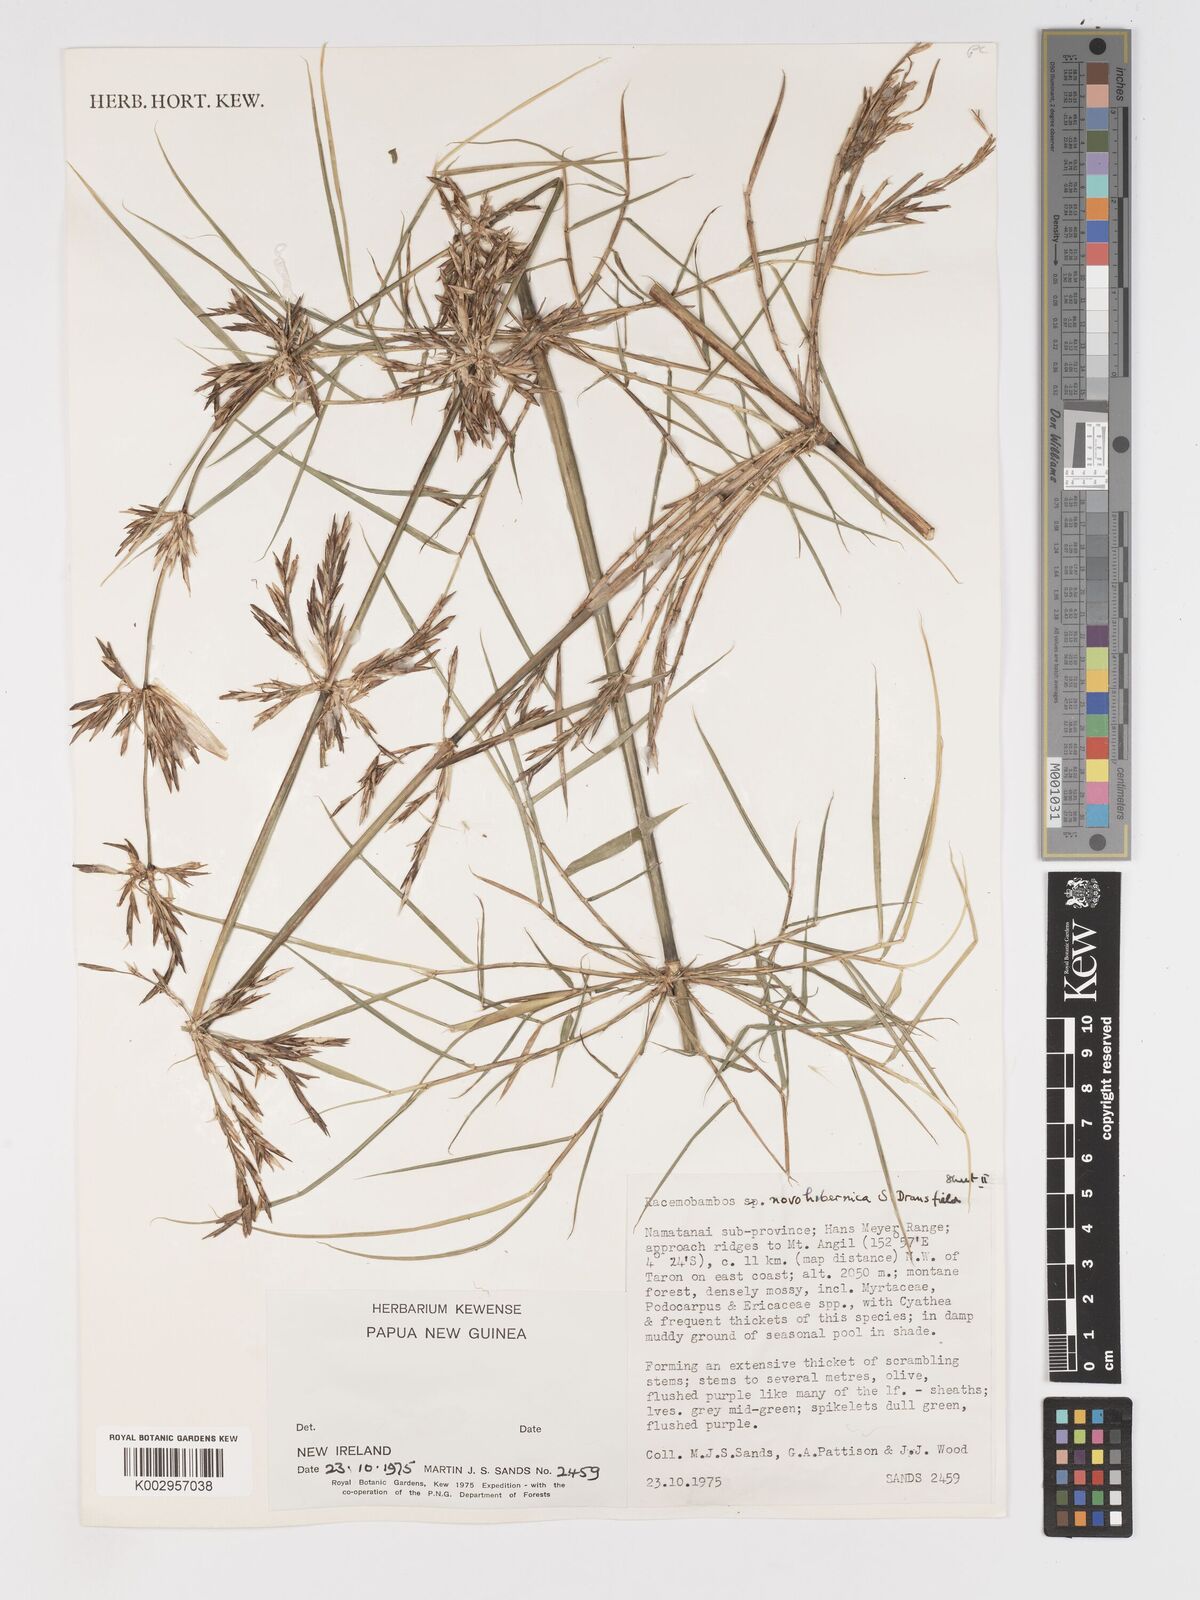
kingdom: Plantae
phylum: Tracheophyta
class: Liliopsida
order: Poales
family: Poaceae
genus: Racemobambos
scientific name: Racemobambos novohibernica
